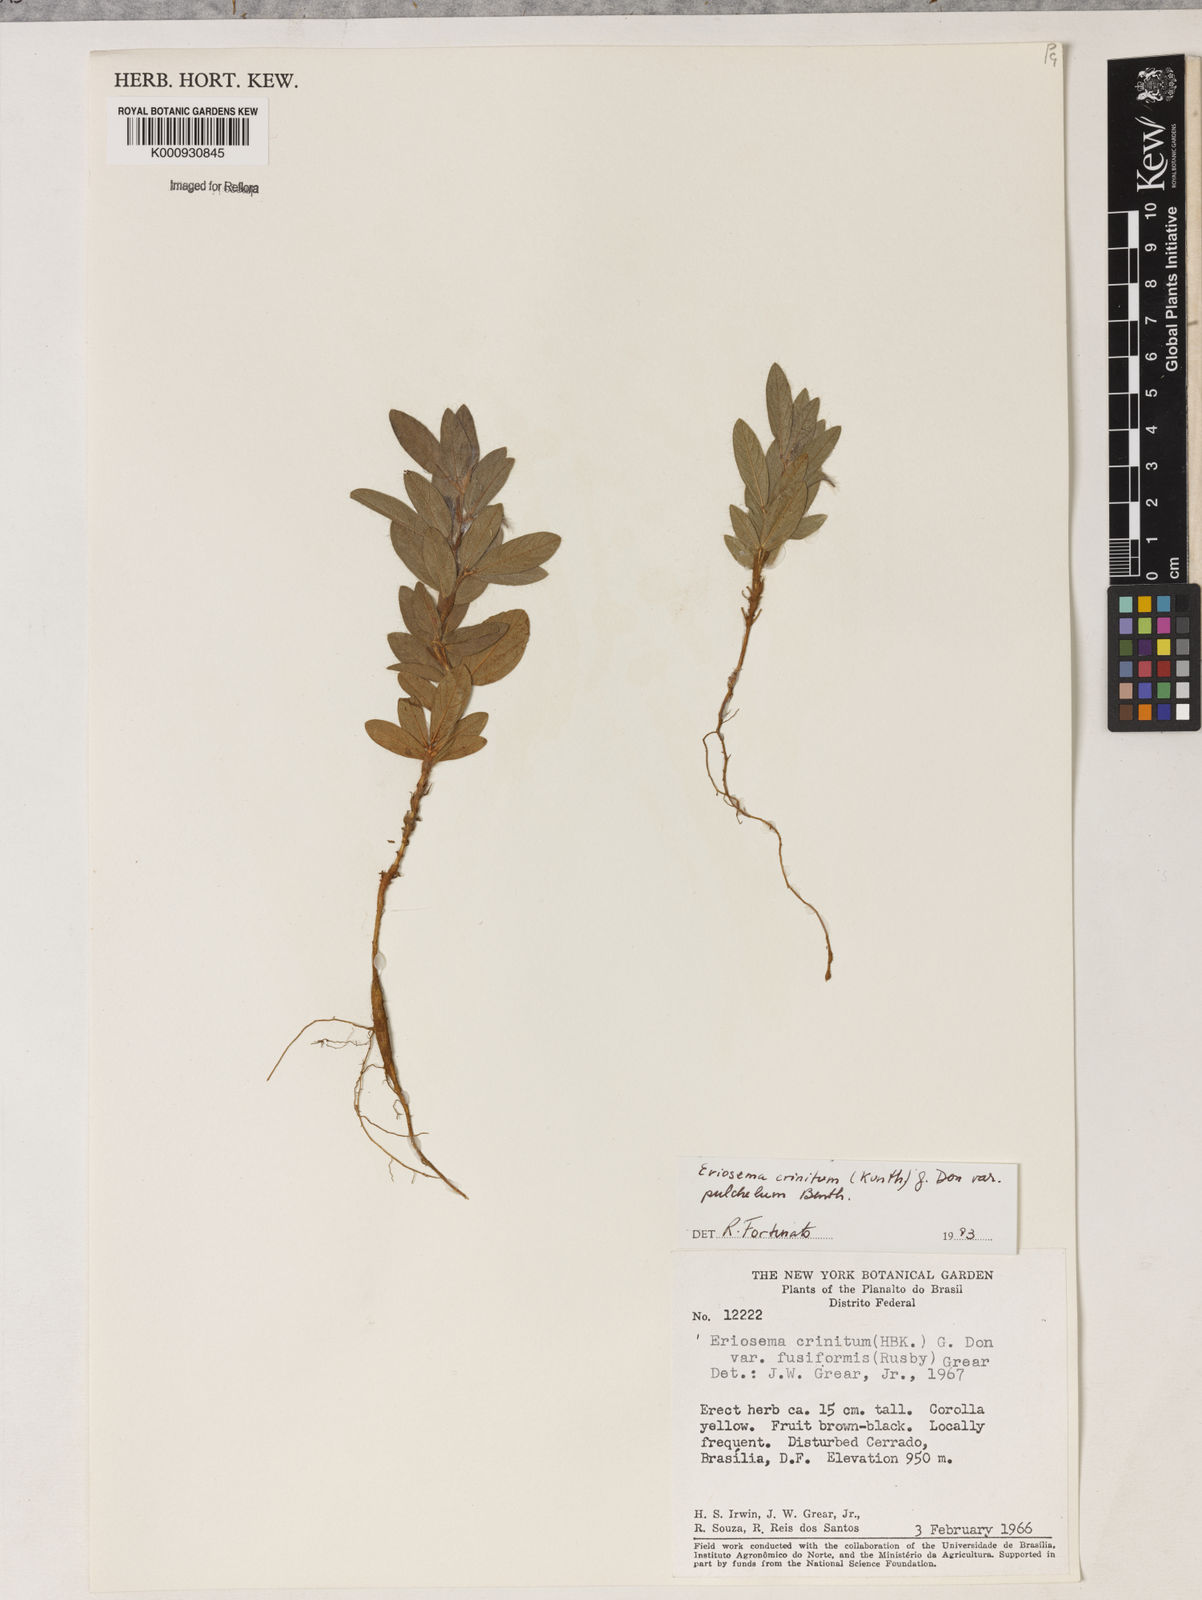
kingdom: Plantae
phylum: Tracheophyta
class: Magnoliopsida
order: Fabales
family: Fabaceae
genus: Eriosema
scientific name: Eriosema crinitum
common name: Sand pea
